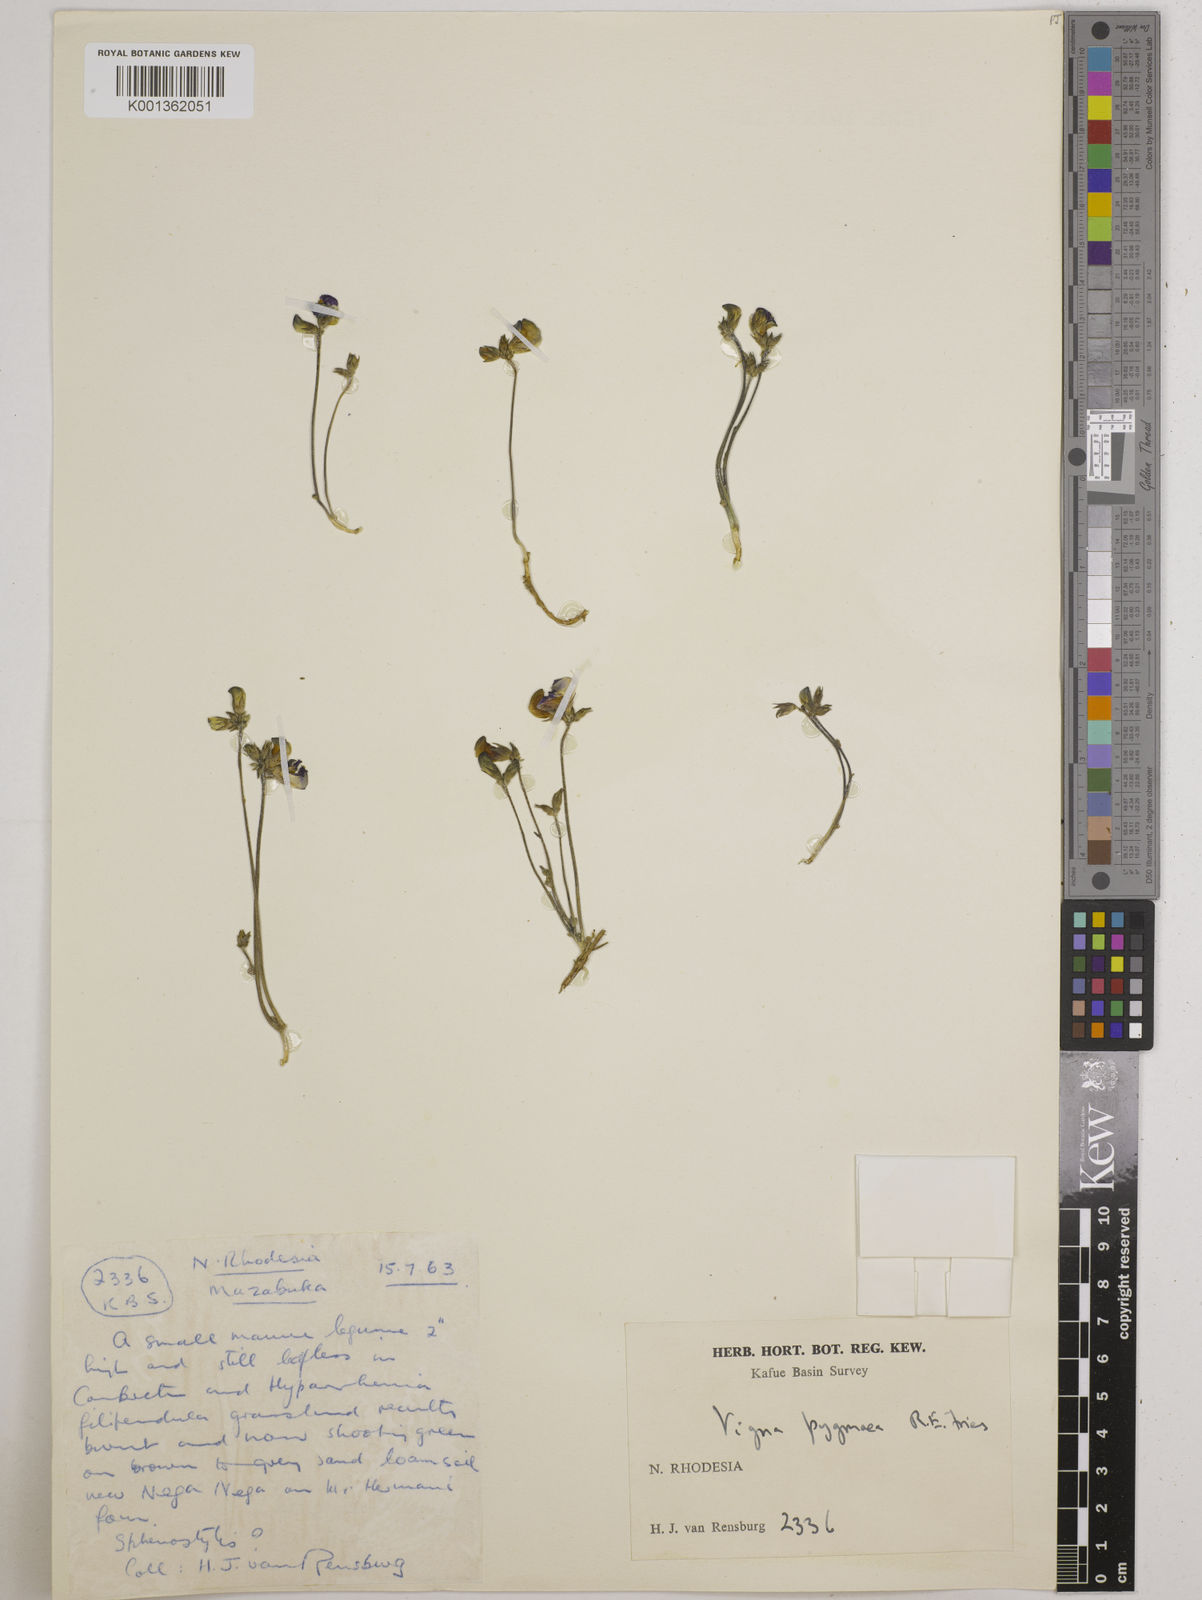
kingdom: Plantae
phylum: Tracheophyta
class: Magnoliopsida
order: Fabales
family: Fabaceae
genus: Vigna
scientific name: Vigna pygmaea
